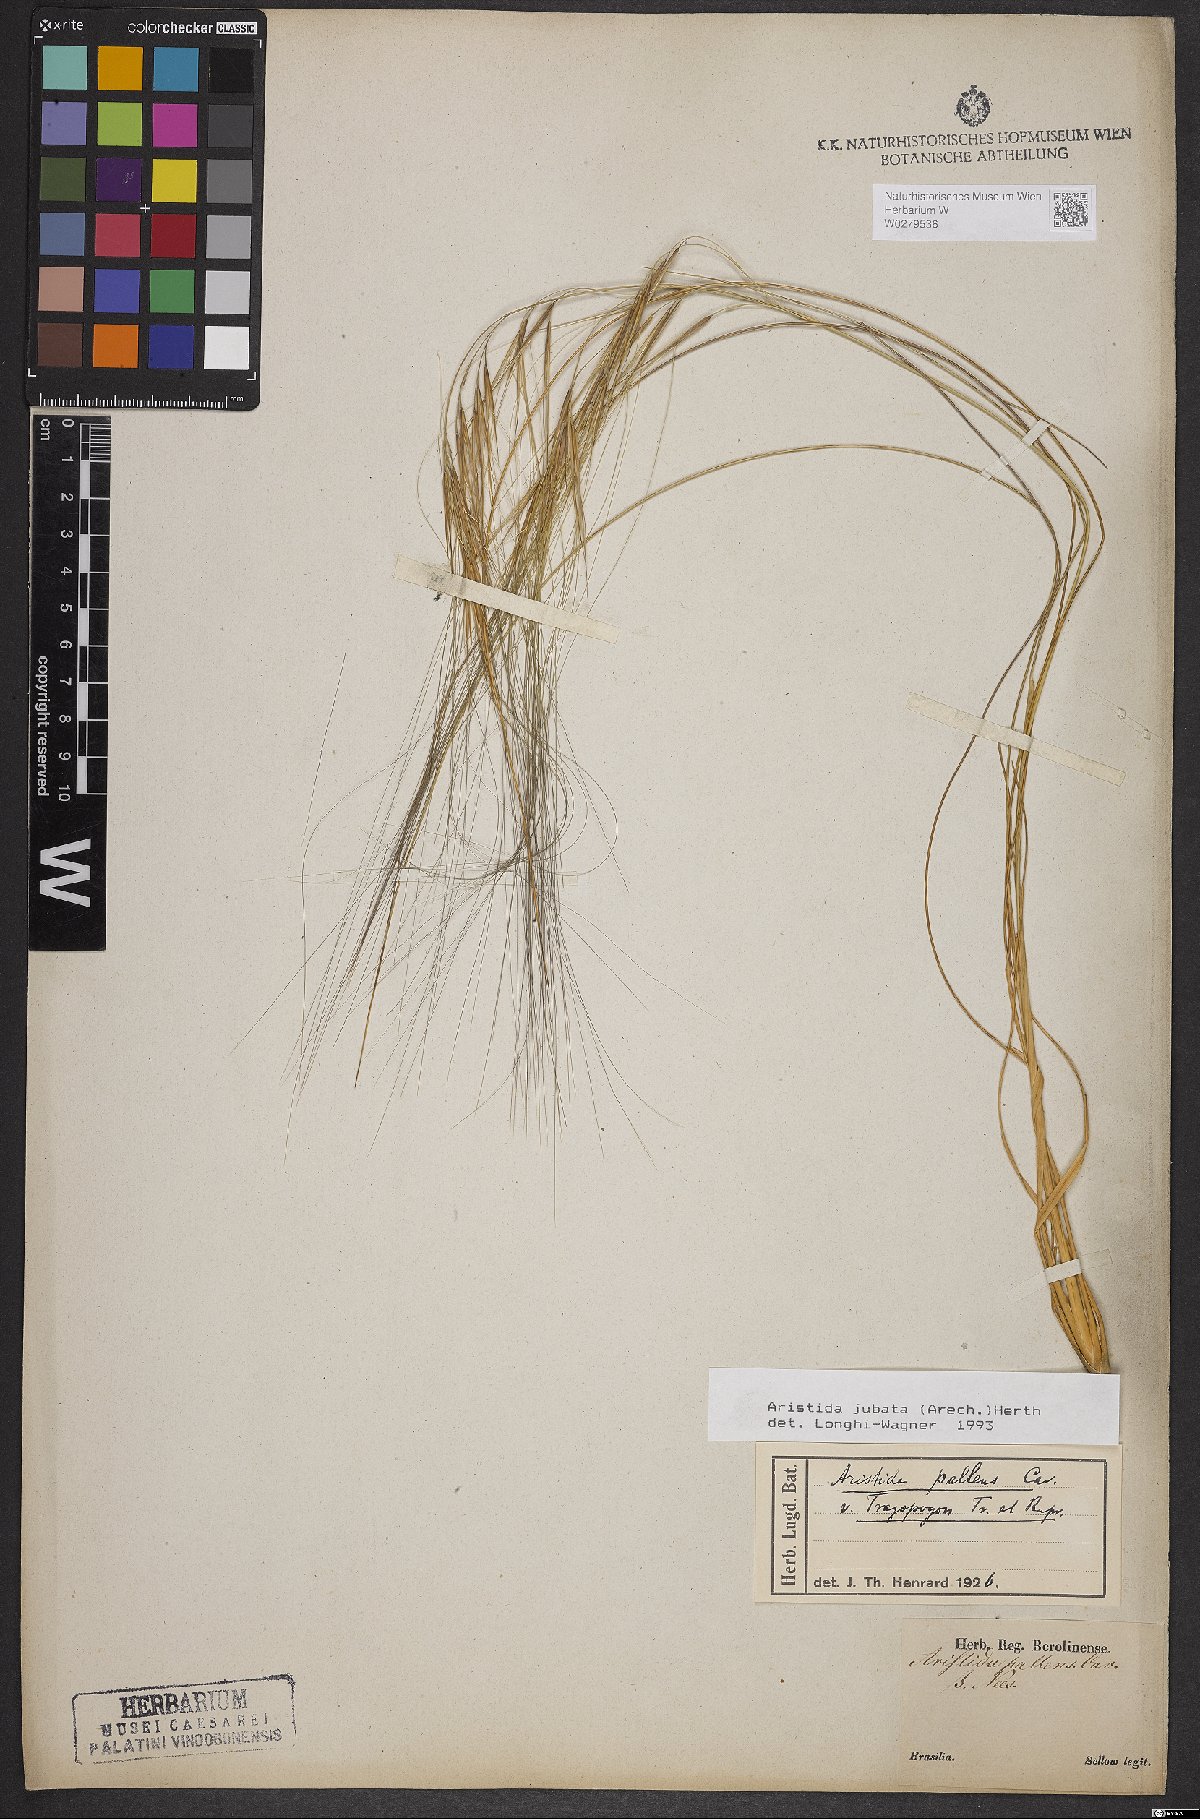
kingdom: Plantae
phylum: Tracheophyta
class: Liliopsida
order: Poales
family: Poaceae
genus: Aristida
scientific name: Aristida jubata
